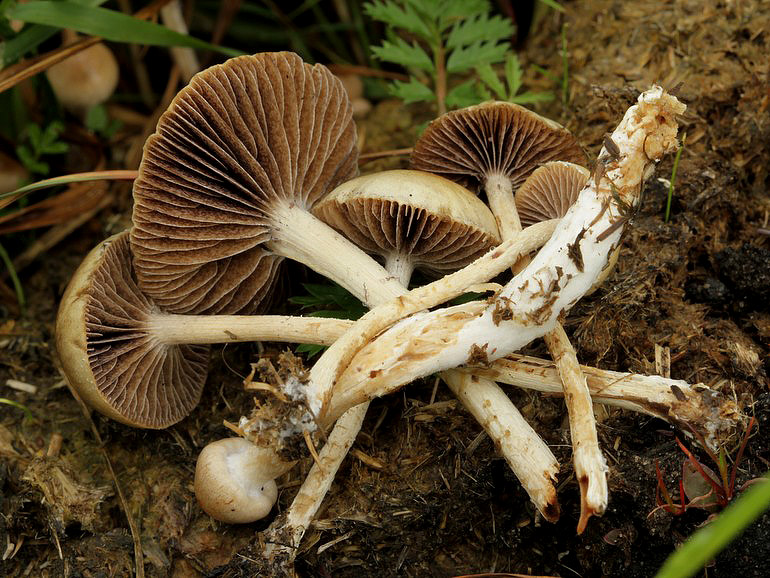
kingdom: Fungi
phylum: Basidiomycota
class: Agaricomycetes
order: Agaricales
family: Strophariaceae
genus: Deconica
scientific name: Deconica merdaria
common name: møg-stråhat
